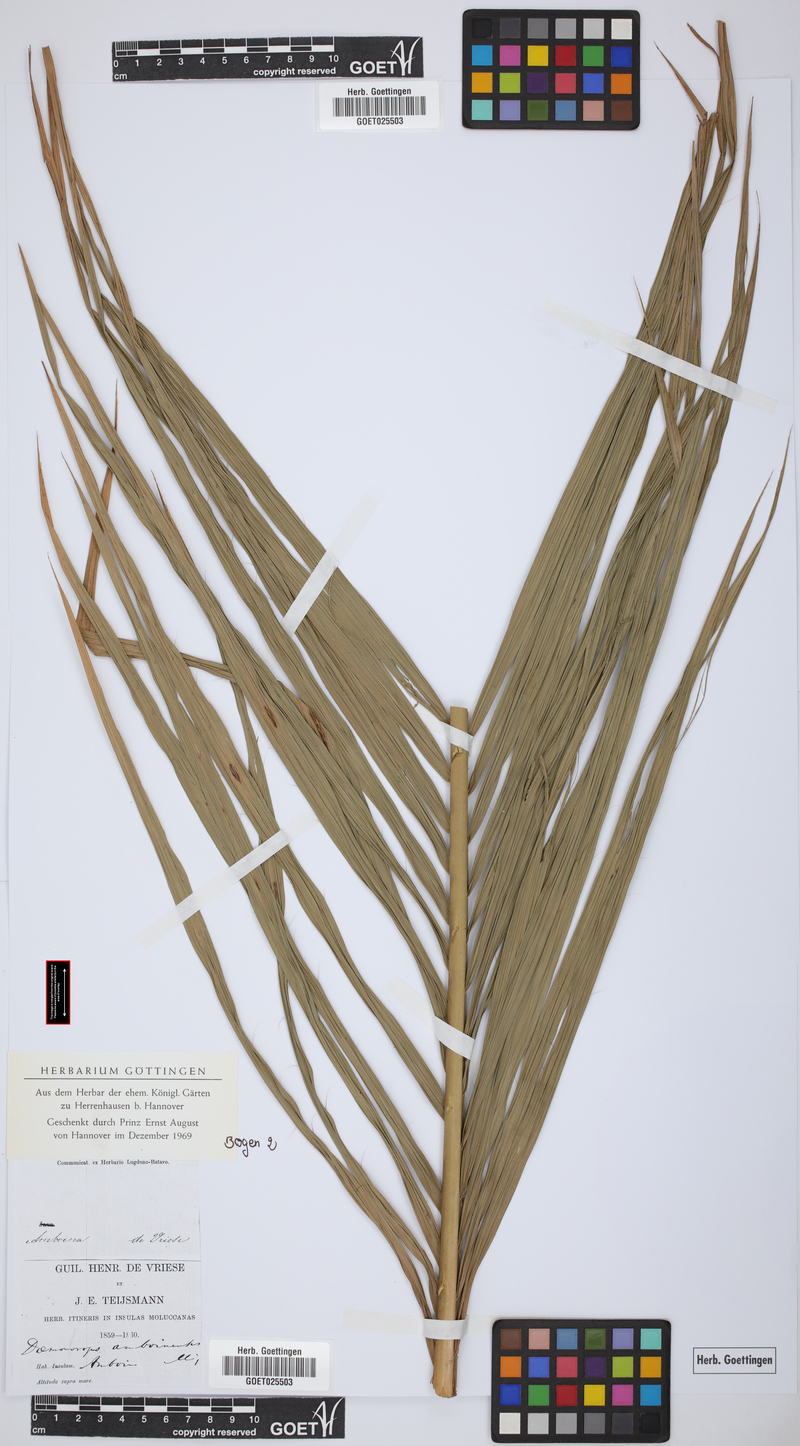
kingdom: Plantae
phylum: Tracheophyta
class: Liliopsida
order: Arecales
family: Arecaceae
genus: Calamus
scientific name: Calamus calapparius
